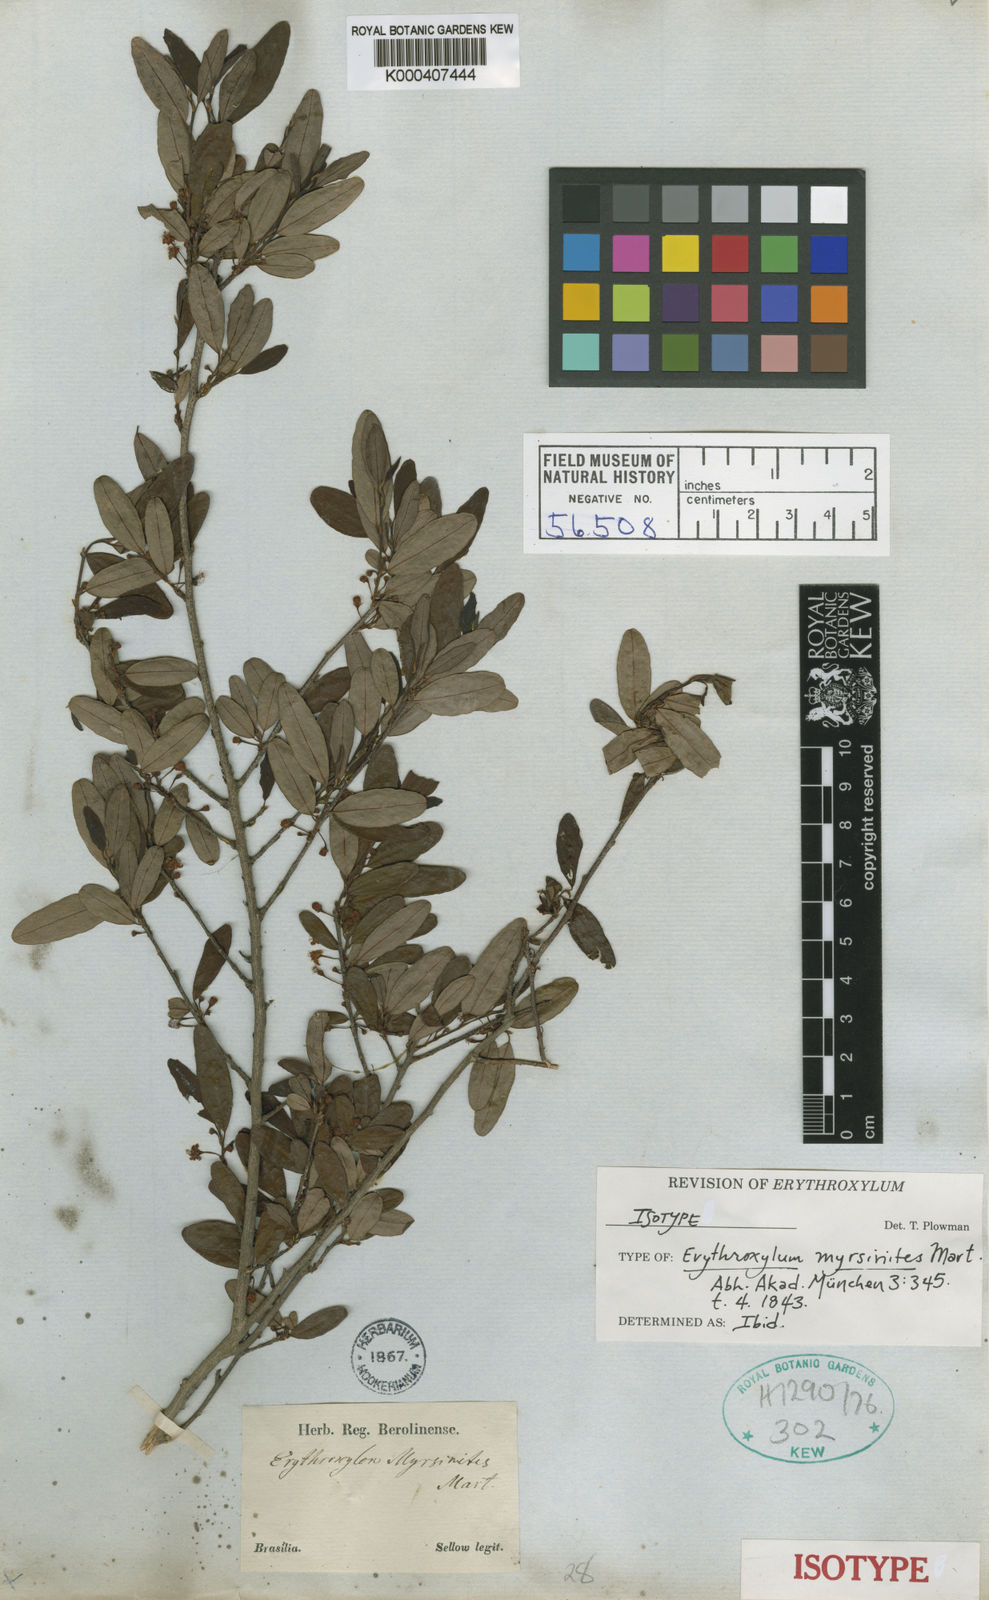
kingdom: Plantae
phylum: Tracheophyta
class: Magnoliopsida
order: Malpighiales
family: Erythroxylaceae
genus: Erythroxylum
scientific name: Erythroxylum myrsinites
